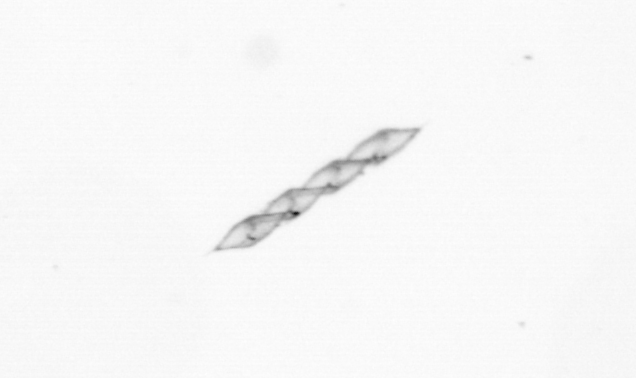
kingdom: Chromista
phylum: Ochrophyta
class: Bacillariophyceae
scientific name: Bacillariophyceae
